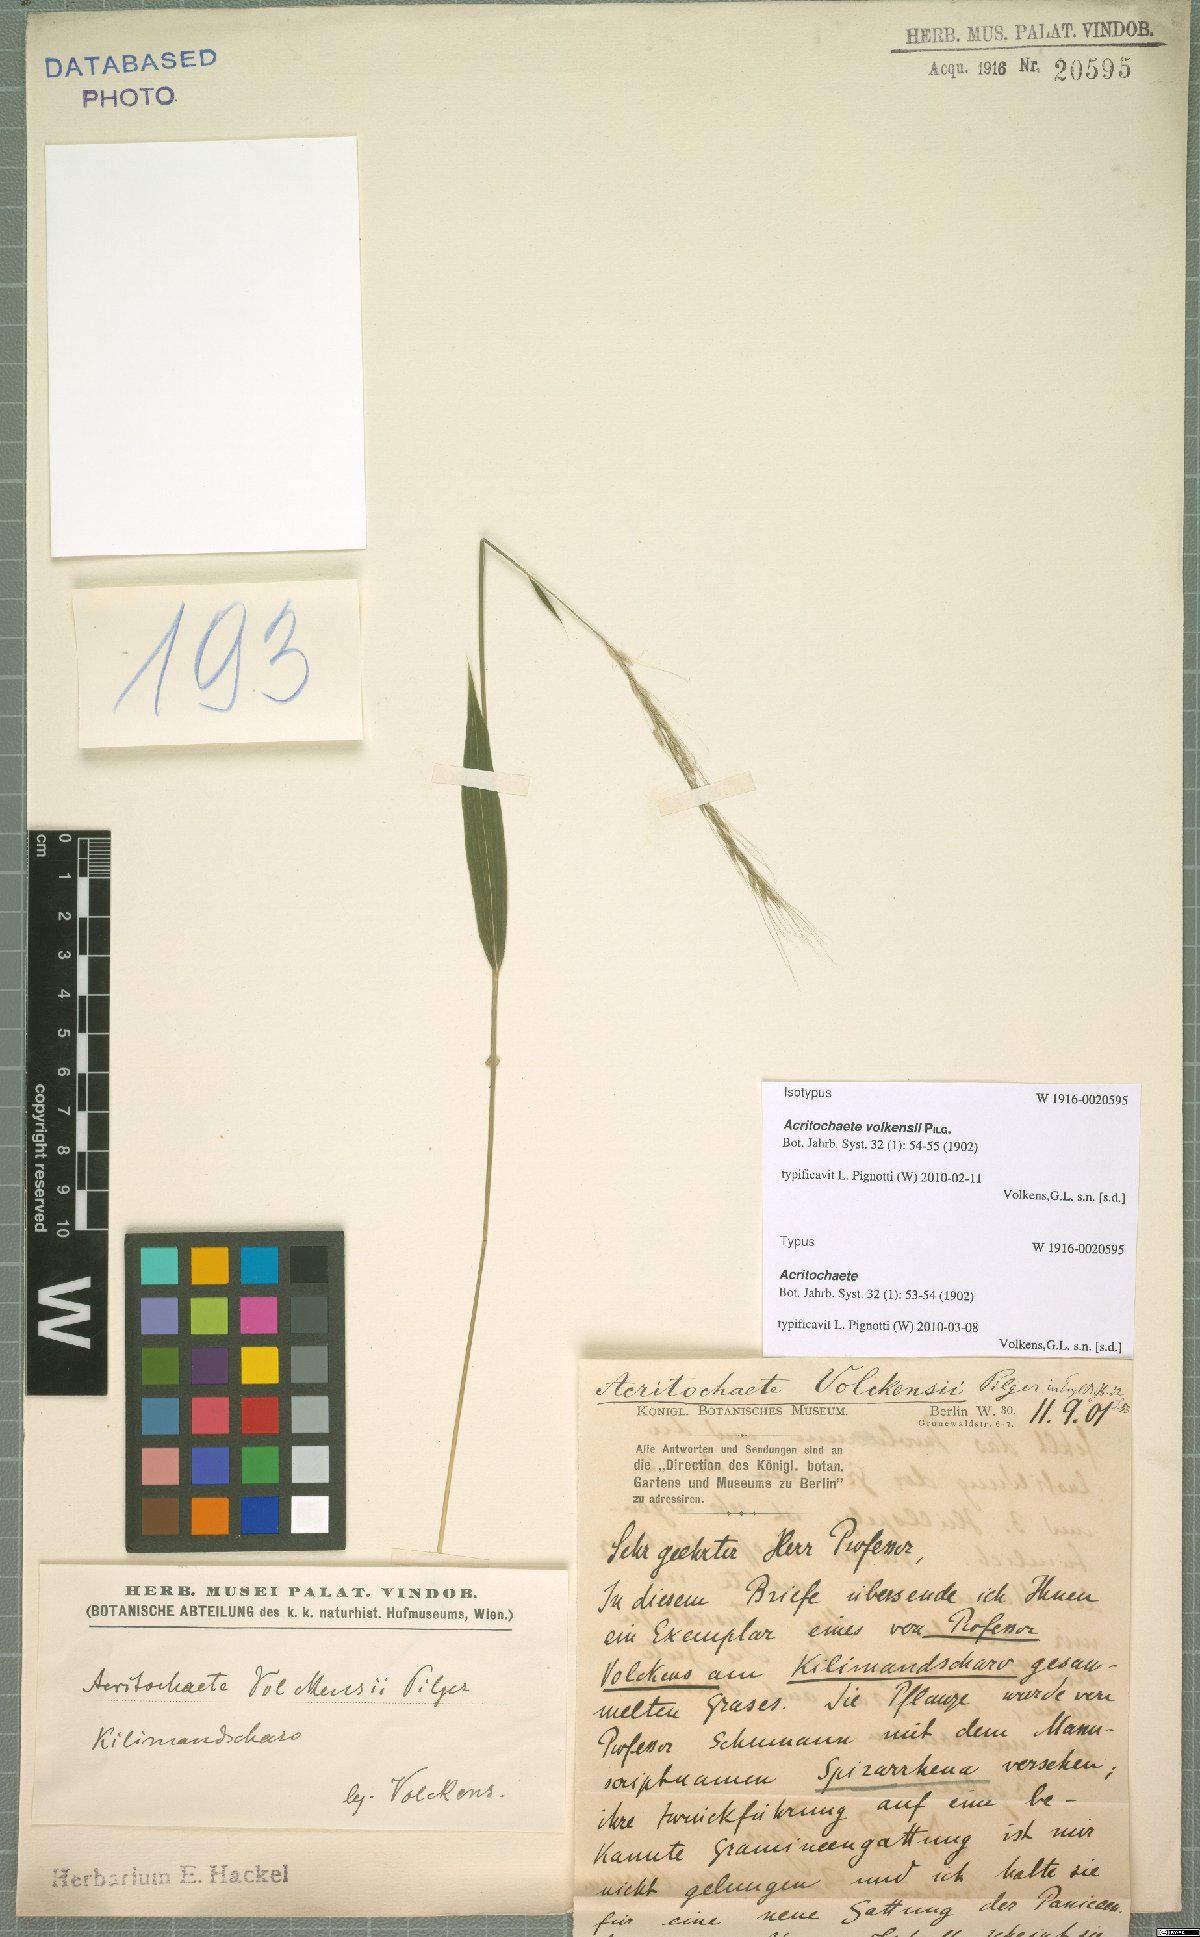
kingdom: Plantae
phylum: Tracheophyta
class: Liliopsida
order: Poales
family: Poaceae
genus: Acritochaete
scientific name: Acritochaete volkensii
